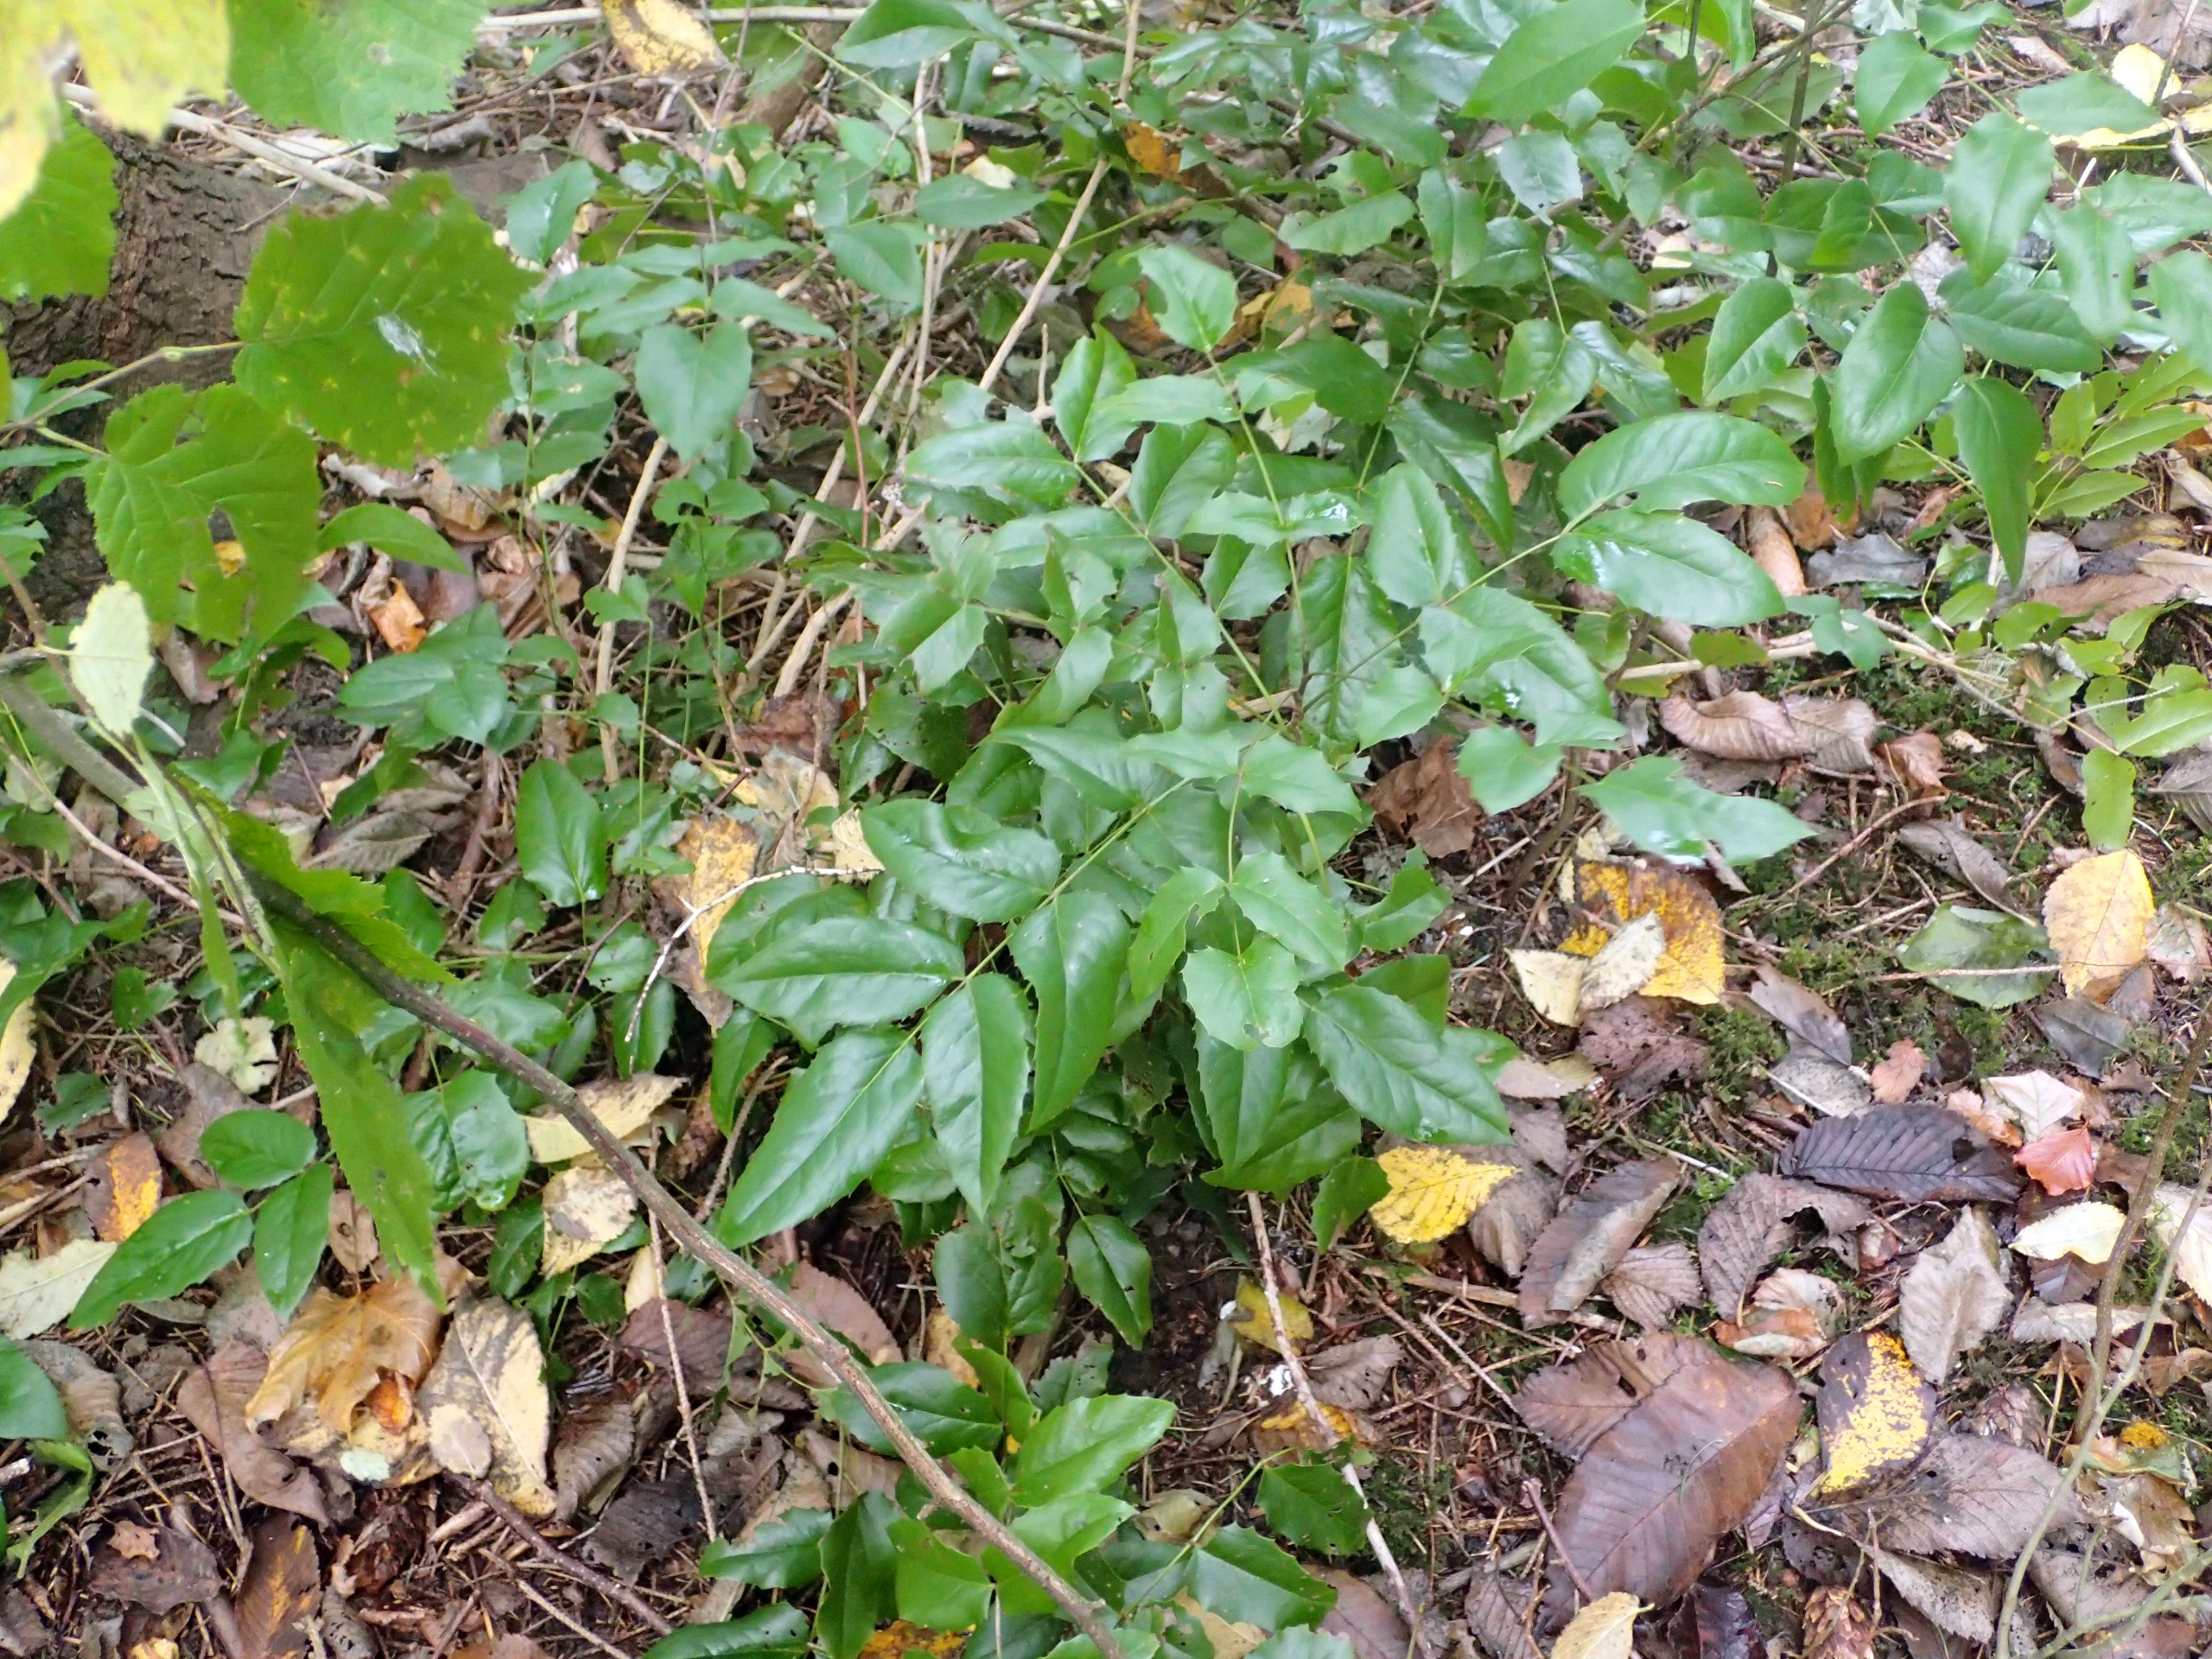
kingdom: Plantae
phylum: Tracheophyta
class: Magnoliopsida
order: Ranunculales
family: Berberidaceae
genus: Mahonia
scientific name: Mahonia aquifolium
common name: Almindelig mahonie
